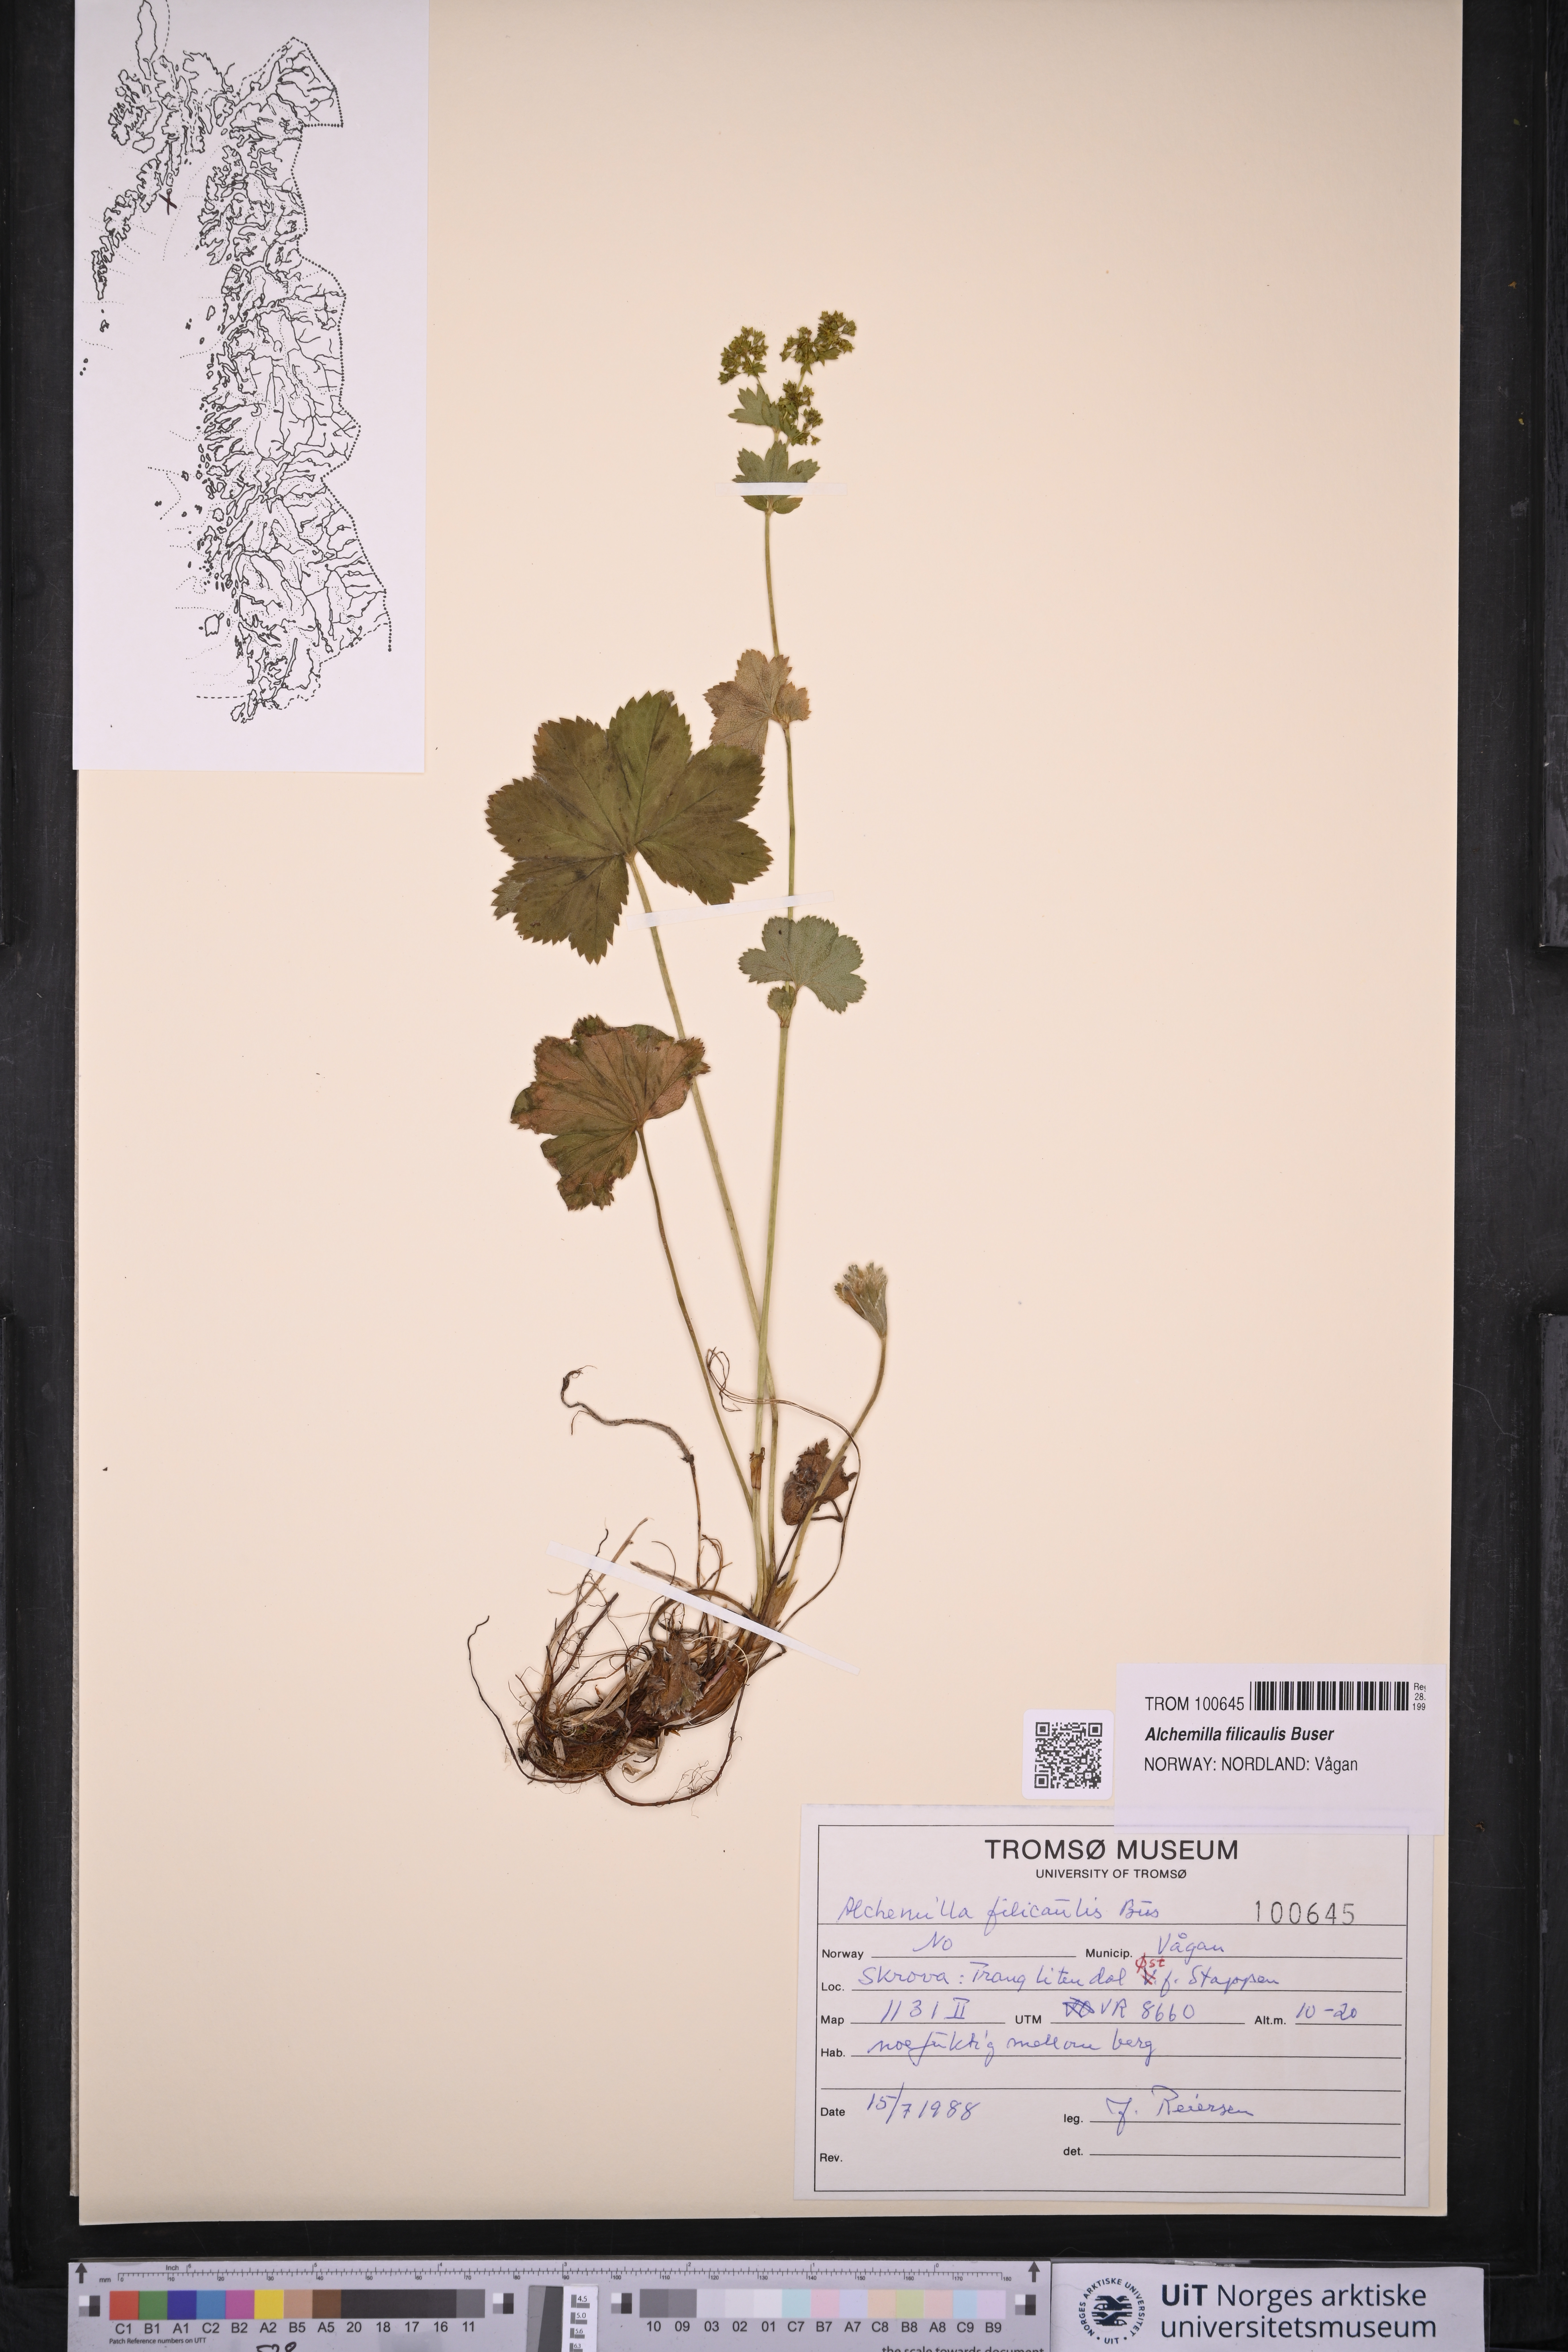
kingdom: Plantae
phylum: Tracheophyta
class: Magnoliopsida
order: Rosales
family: Rosaceae
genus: Alchemilla
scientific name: Alchemilla filicaulis
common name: Hairy lady's-mantle
